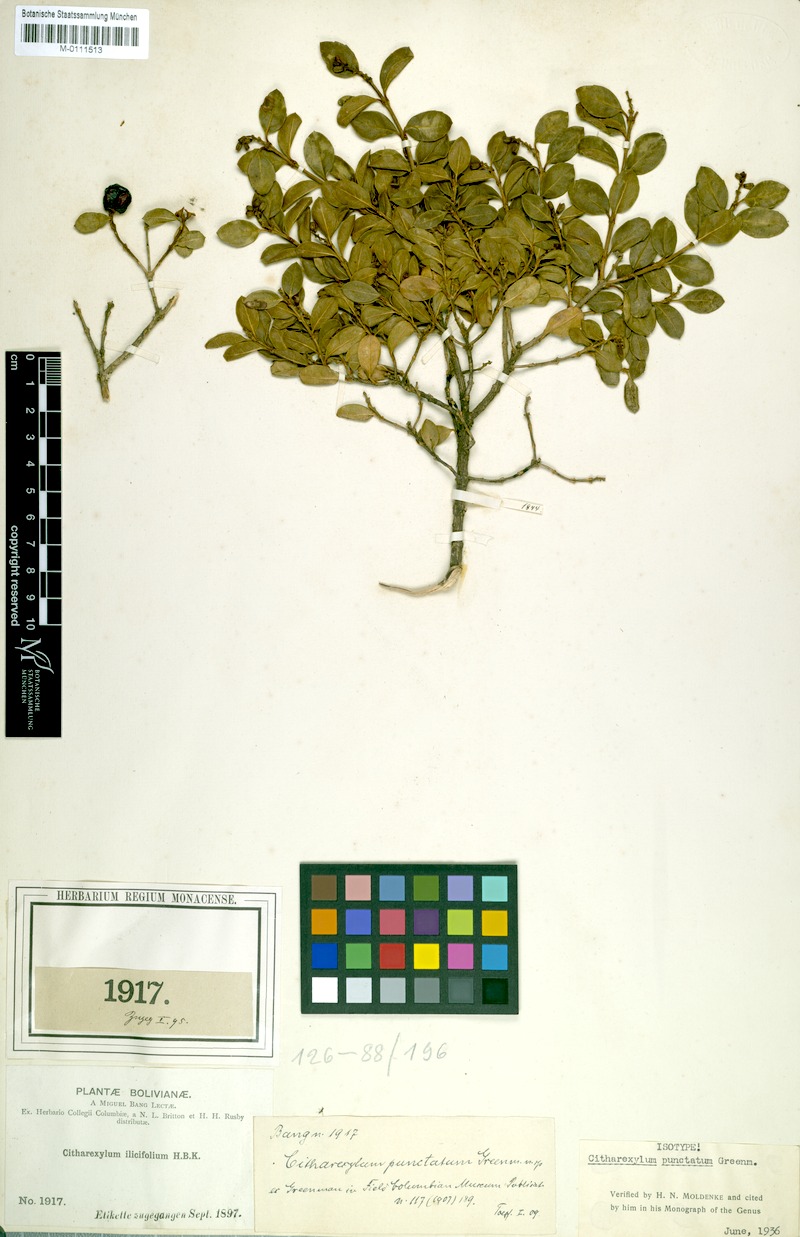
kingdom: Plantae
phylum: Tracheophyta
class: Magnoliopsida
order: Lamiales
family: Verbenaceae
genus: Citharexylum
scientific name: Citharexylum dentatum
